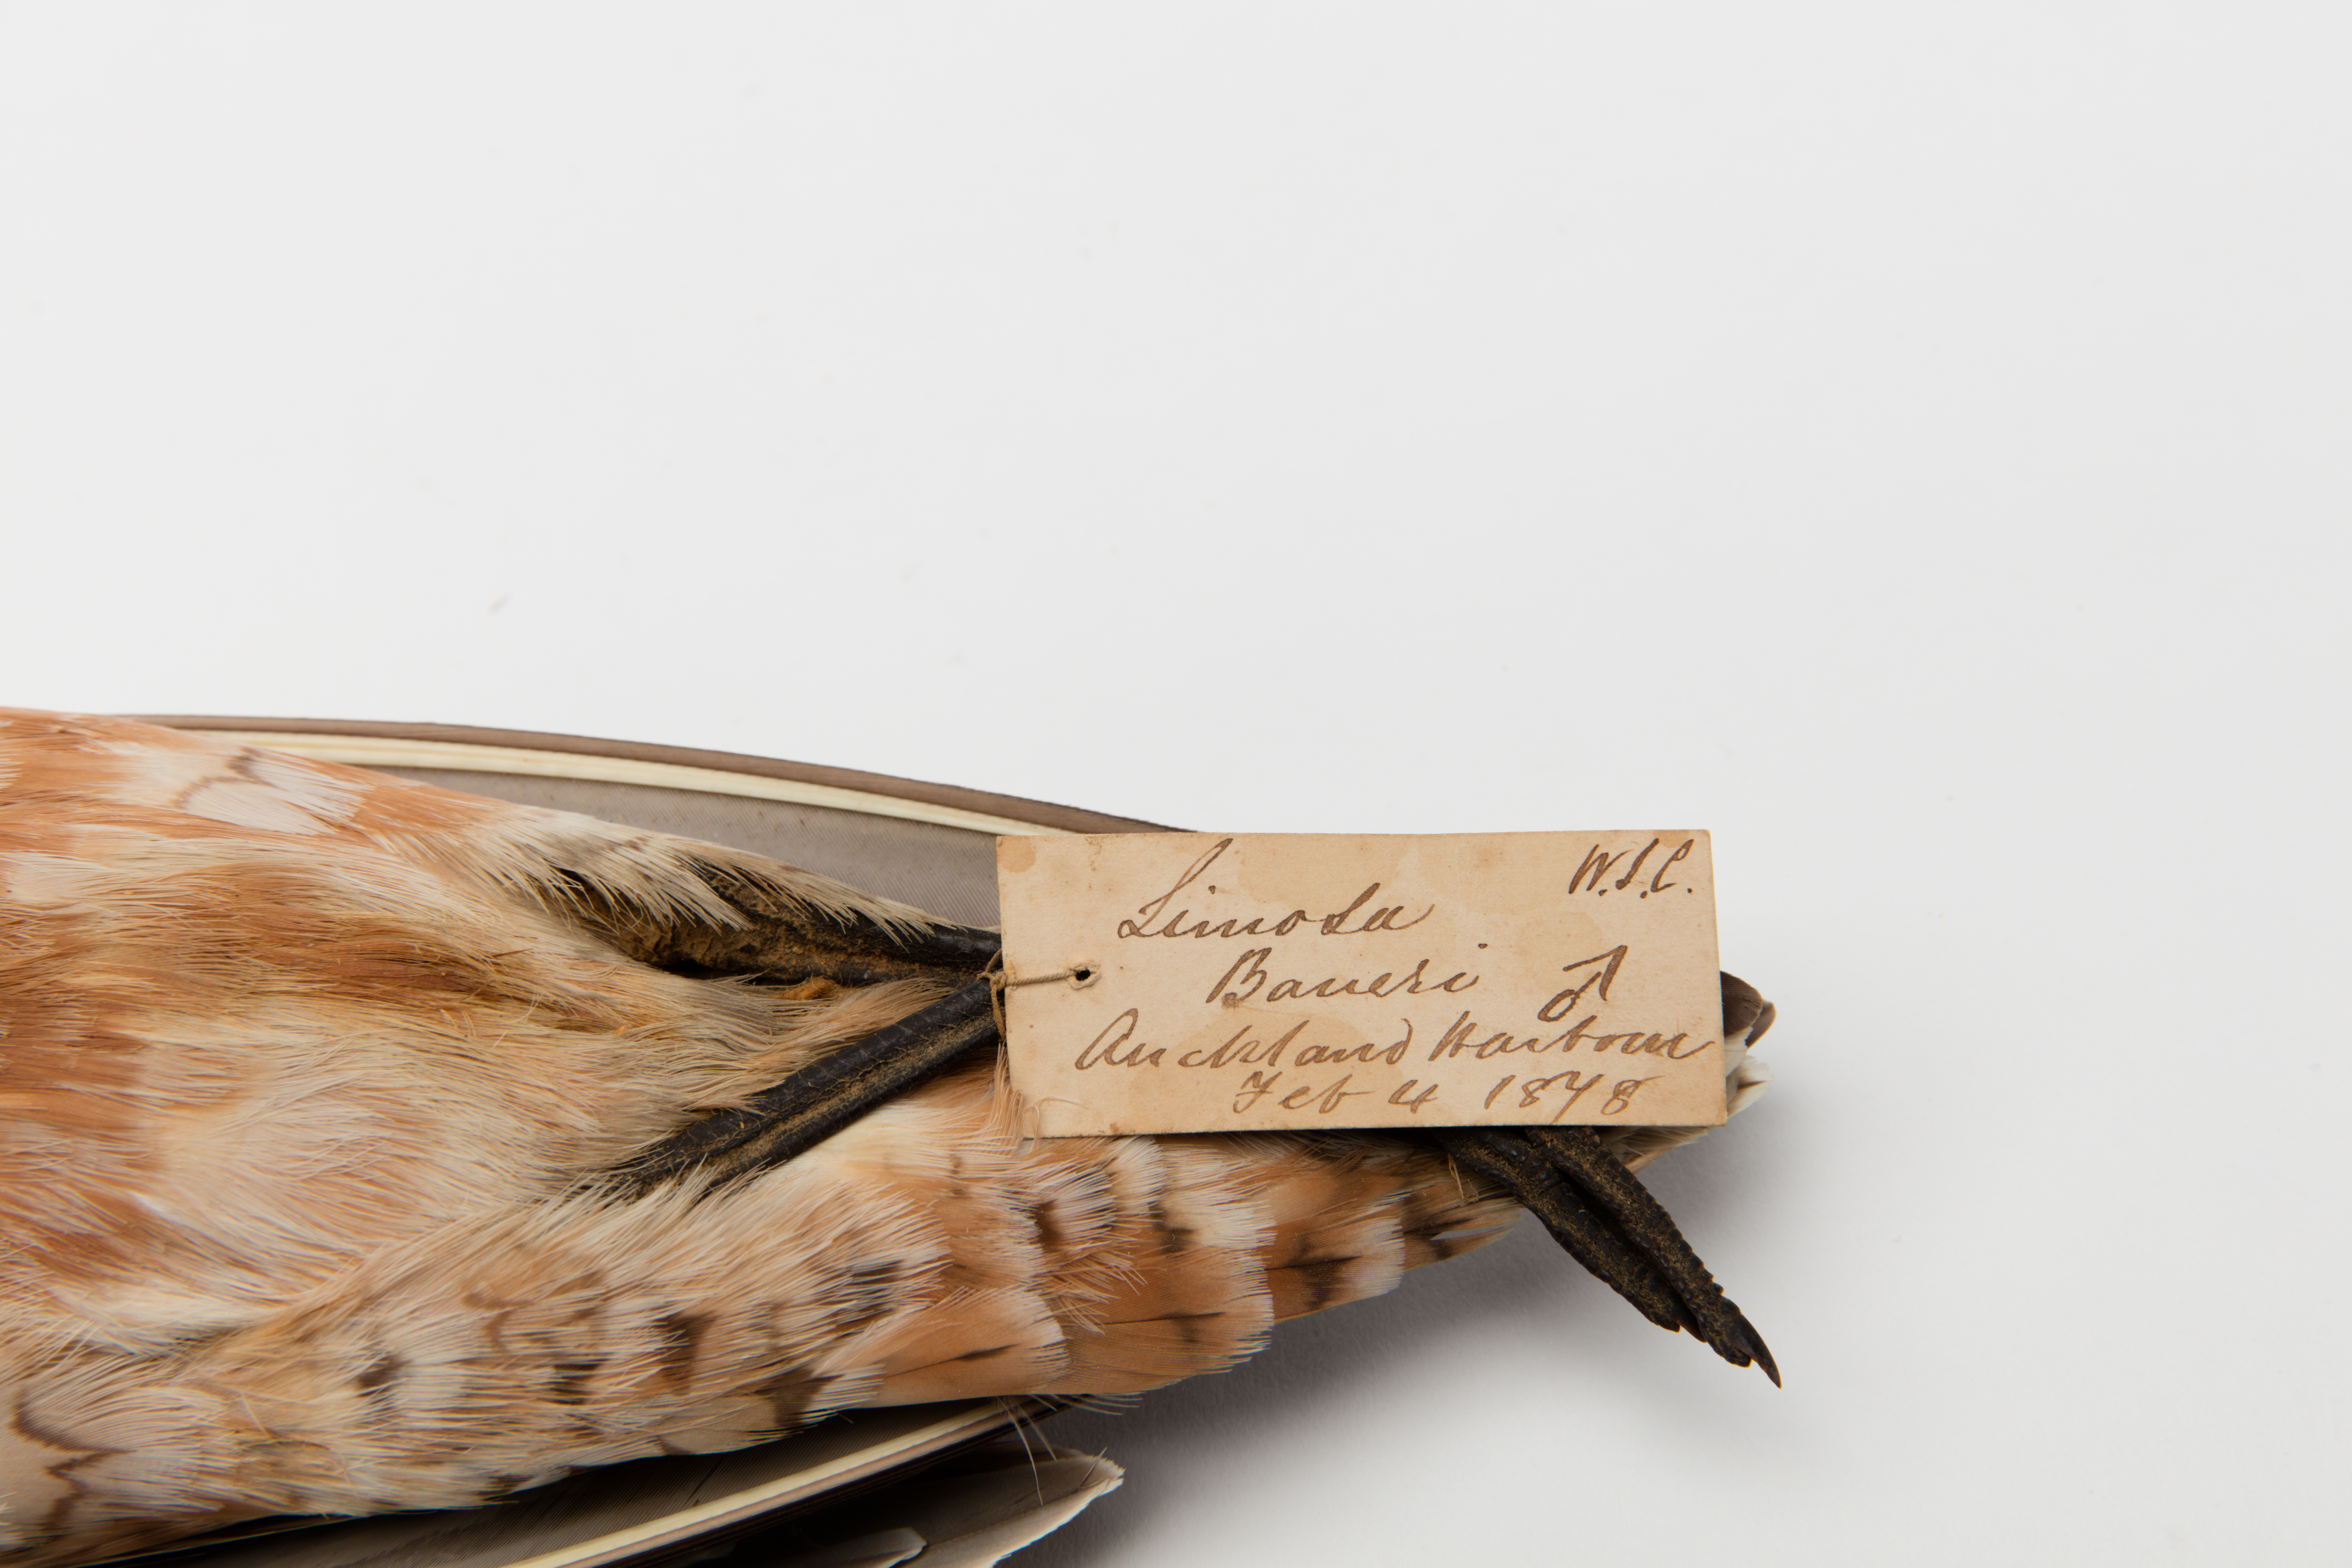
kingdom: Animalia
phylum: Chordata
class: Aves
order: Charadriiformes
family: Scolopacidae
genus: Limosa
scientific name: Limosa lapponica
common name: Bar-tailed godwit
